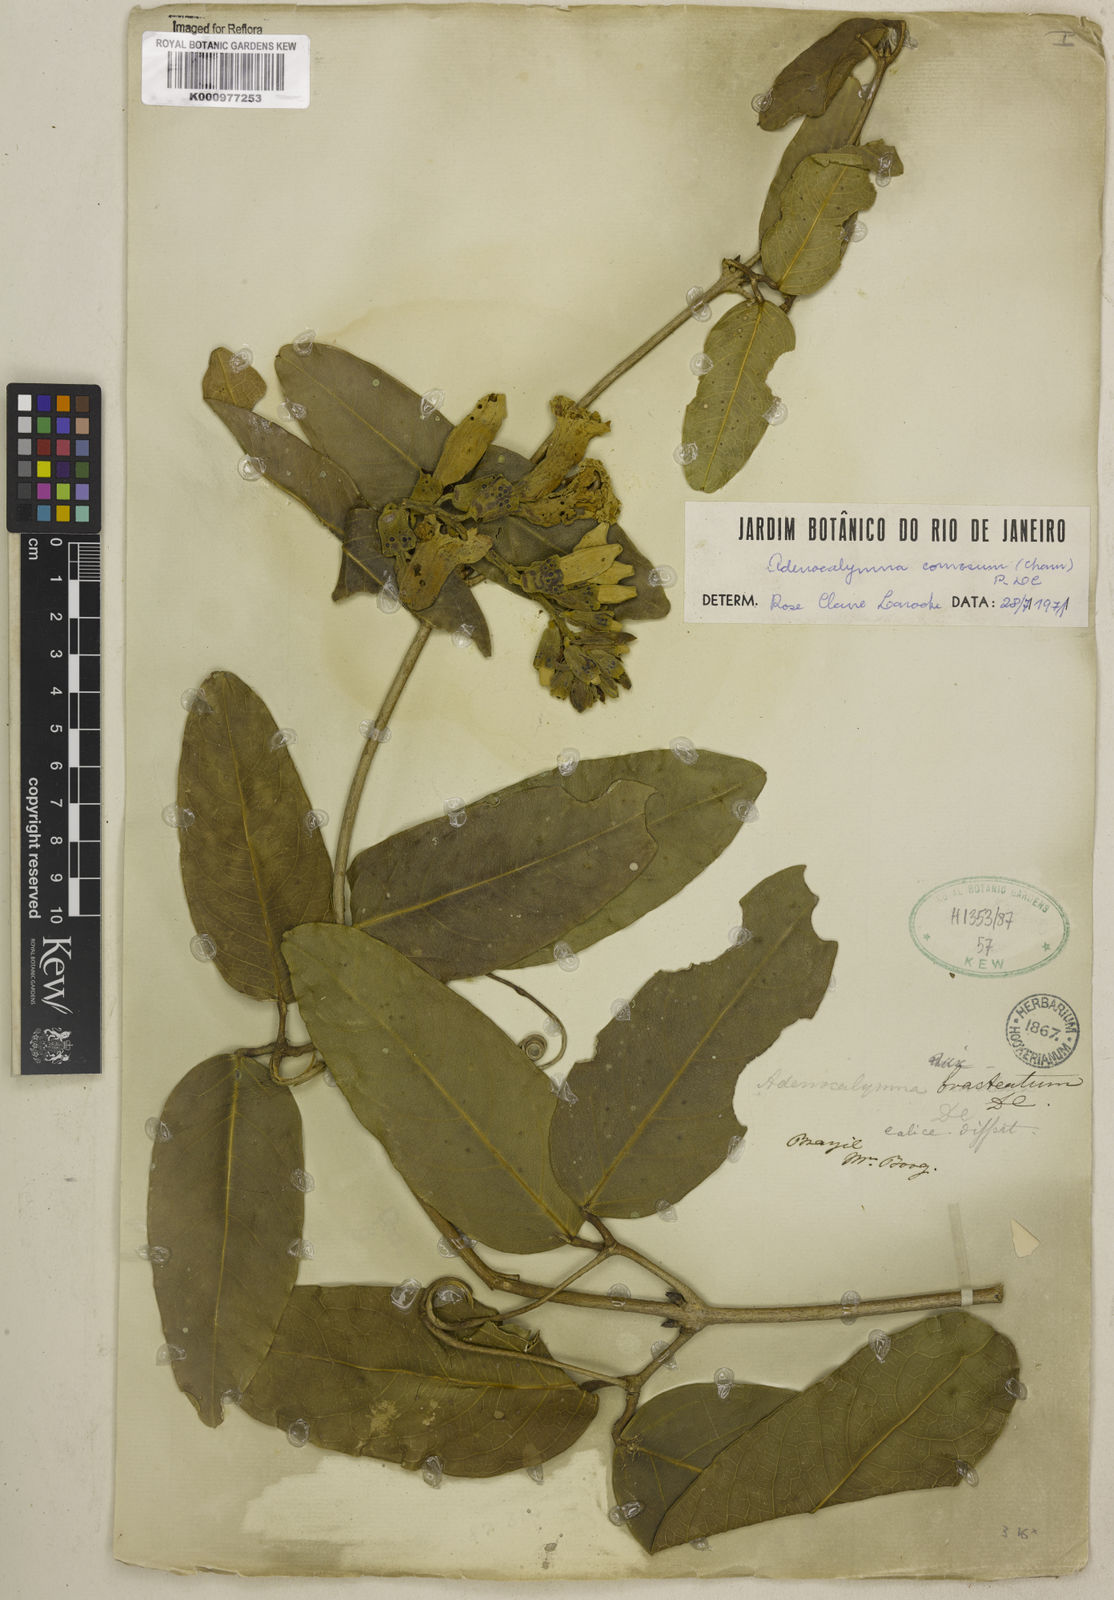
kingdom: Plantae
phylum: Tracheophyta
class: Magnoliopsida
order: Lamiales
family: Bignoniaceae
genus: Adenocalymma
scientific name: Adenocalymma acutissimum
